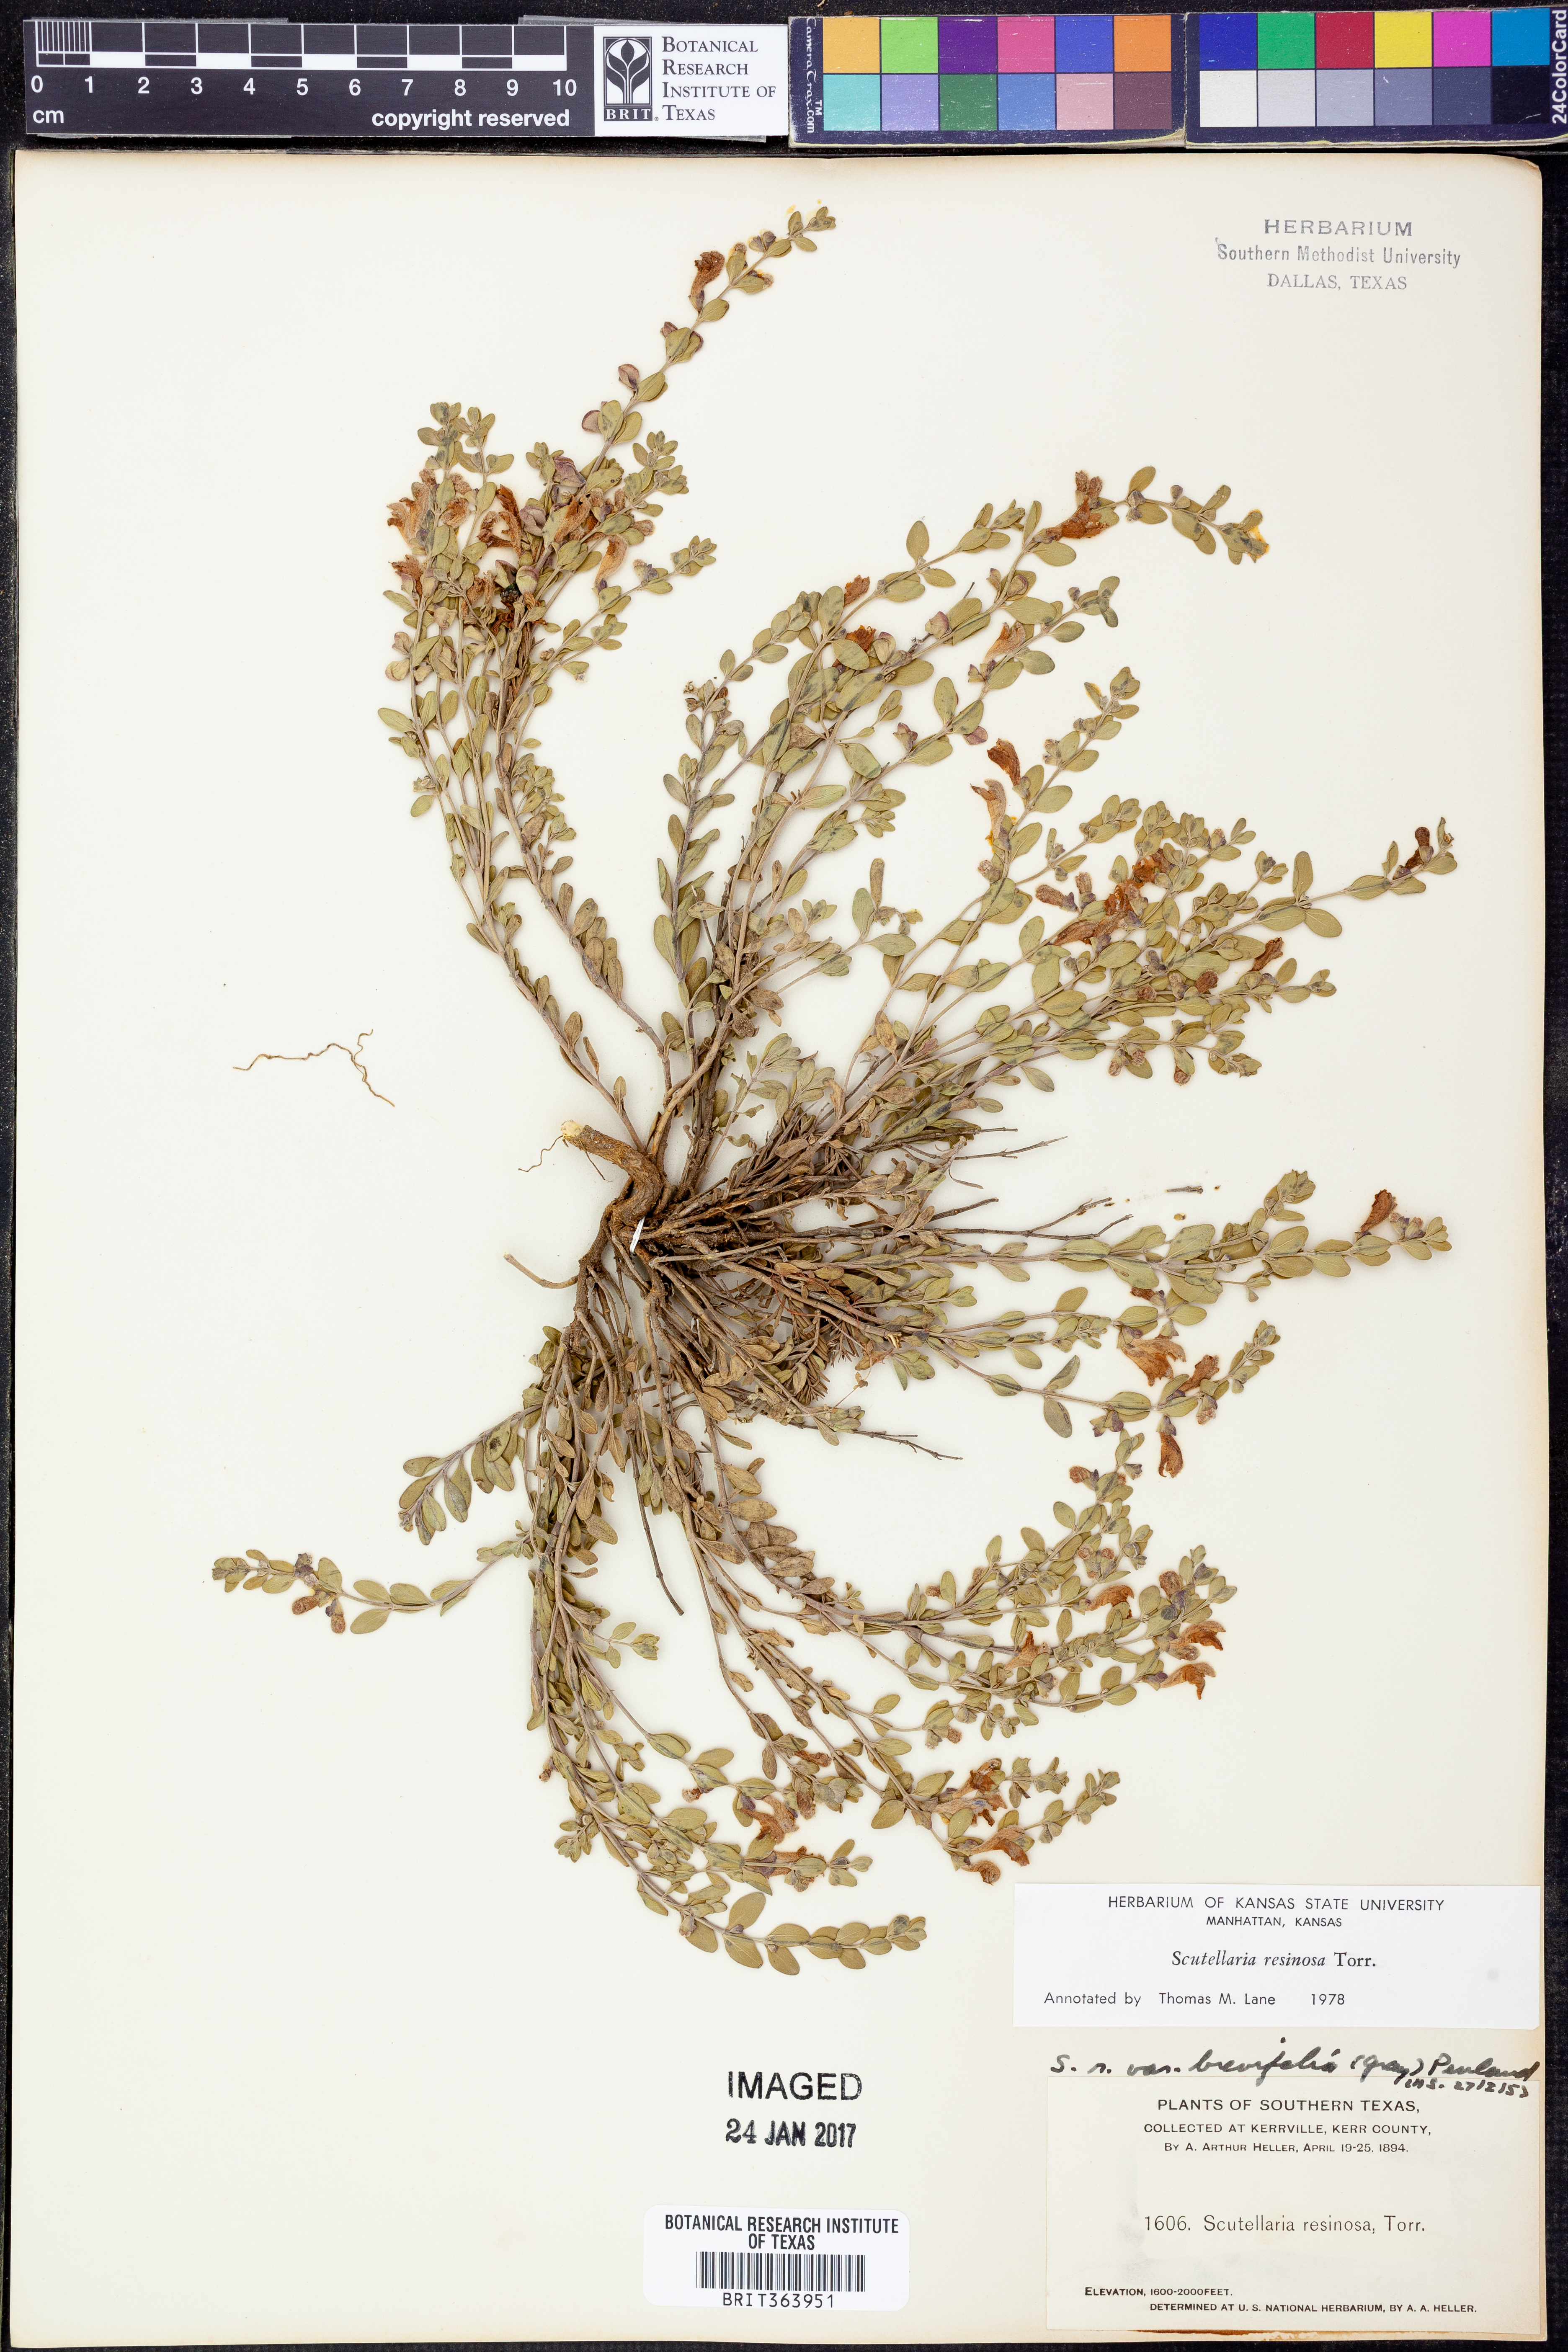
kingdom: Plantae
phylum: Tracheophyta
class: Magnoliopsida
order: Lamiales
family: Lamiaceae
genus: Scutellaria
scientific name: Scutellaria resinosa
